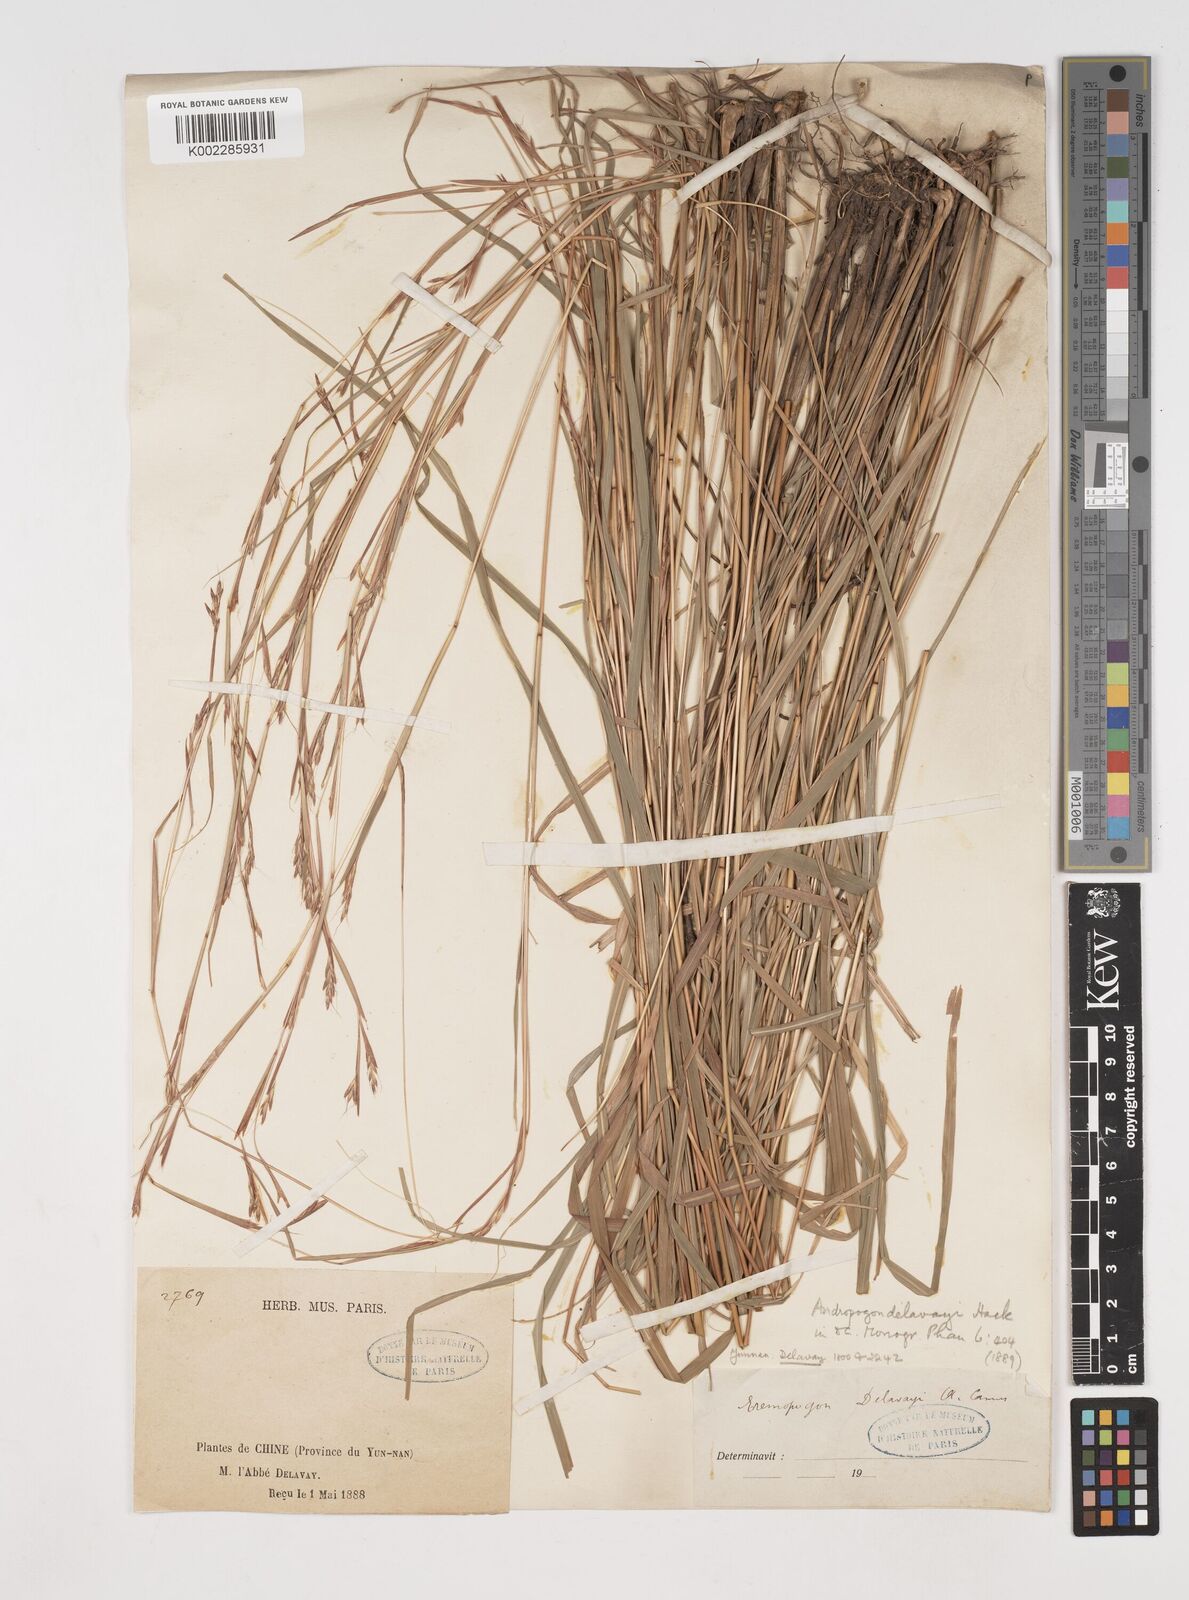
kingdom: Plantae
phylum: Tracheophyta
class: Liliopsida
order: Poales
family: Poaceae
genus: Schizachyrium
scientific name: Schizachyrium delavayi
